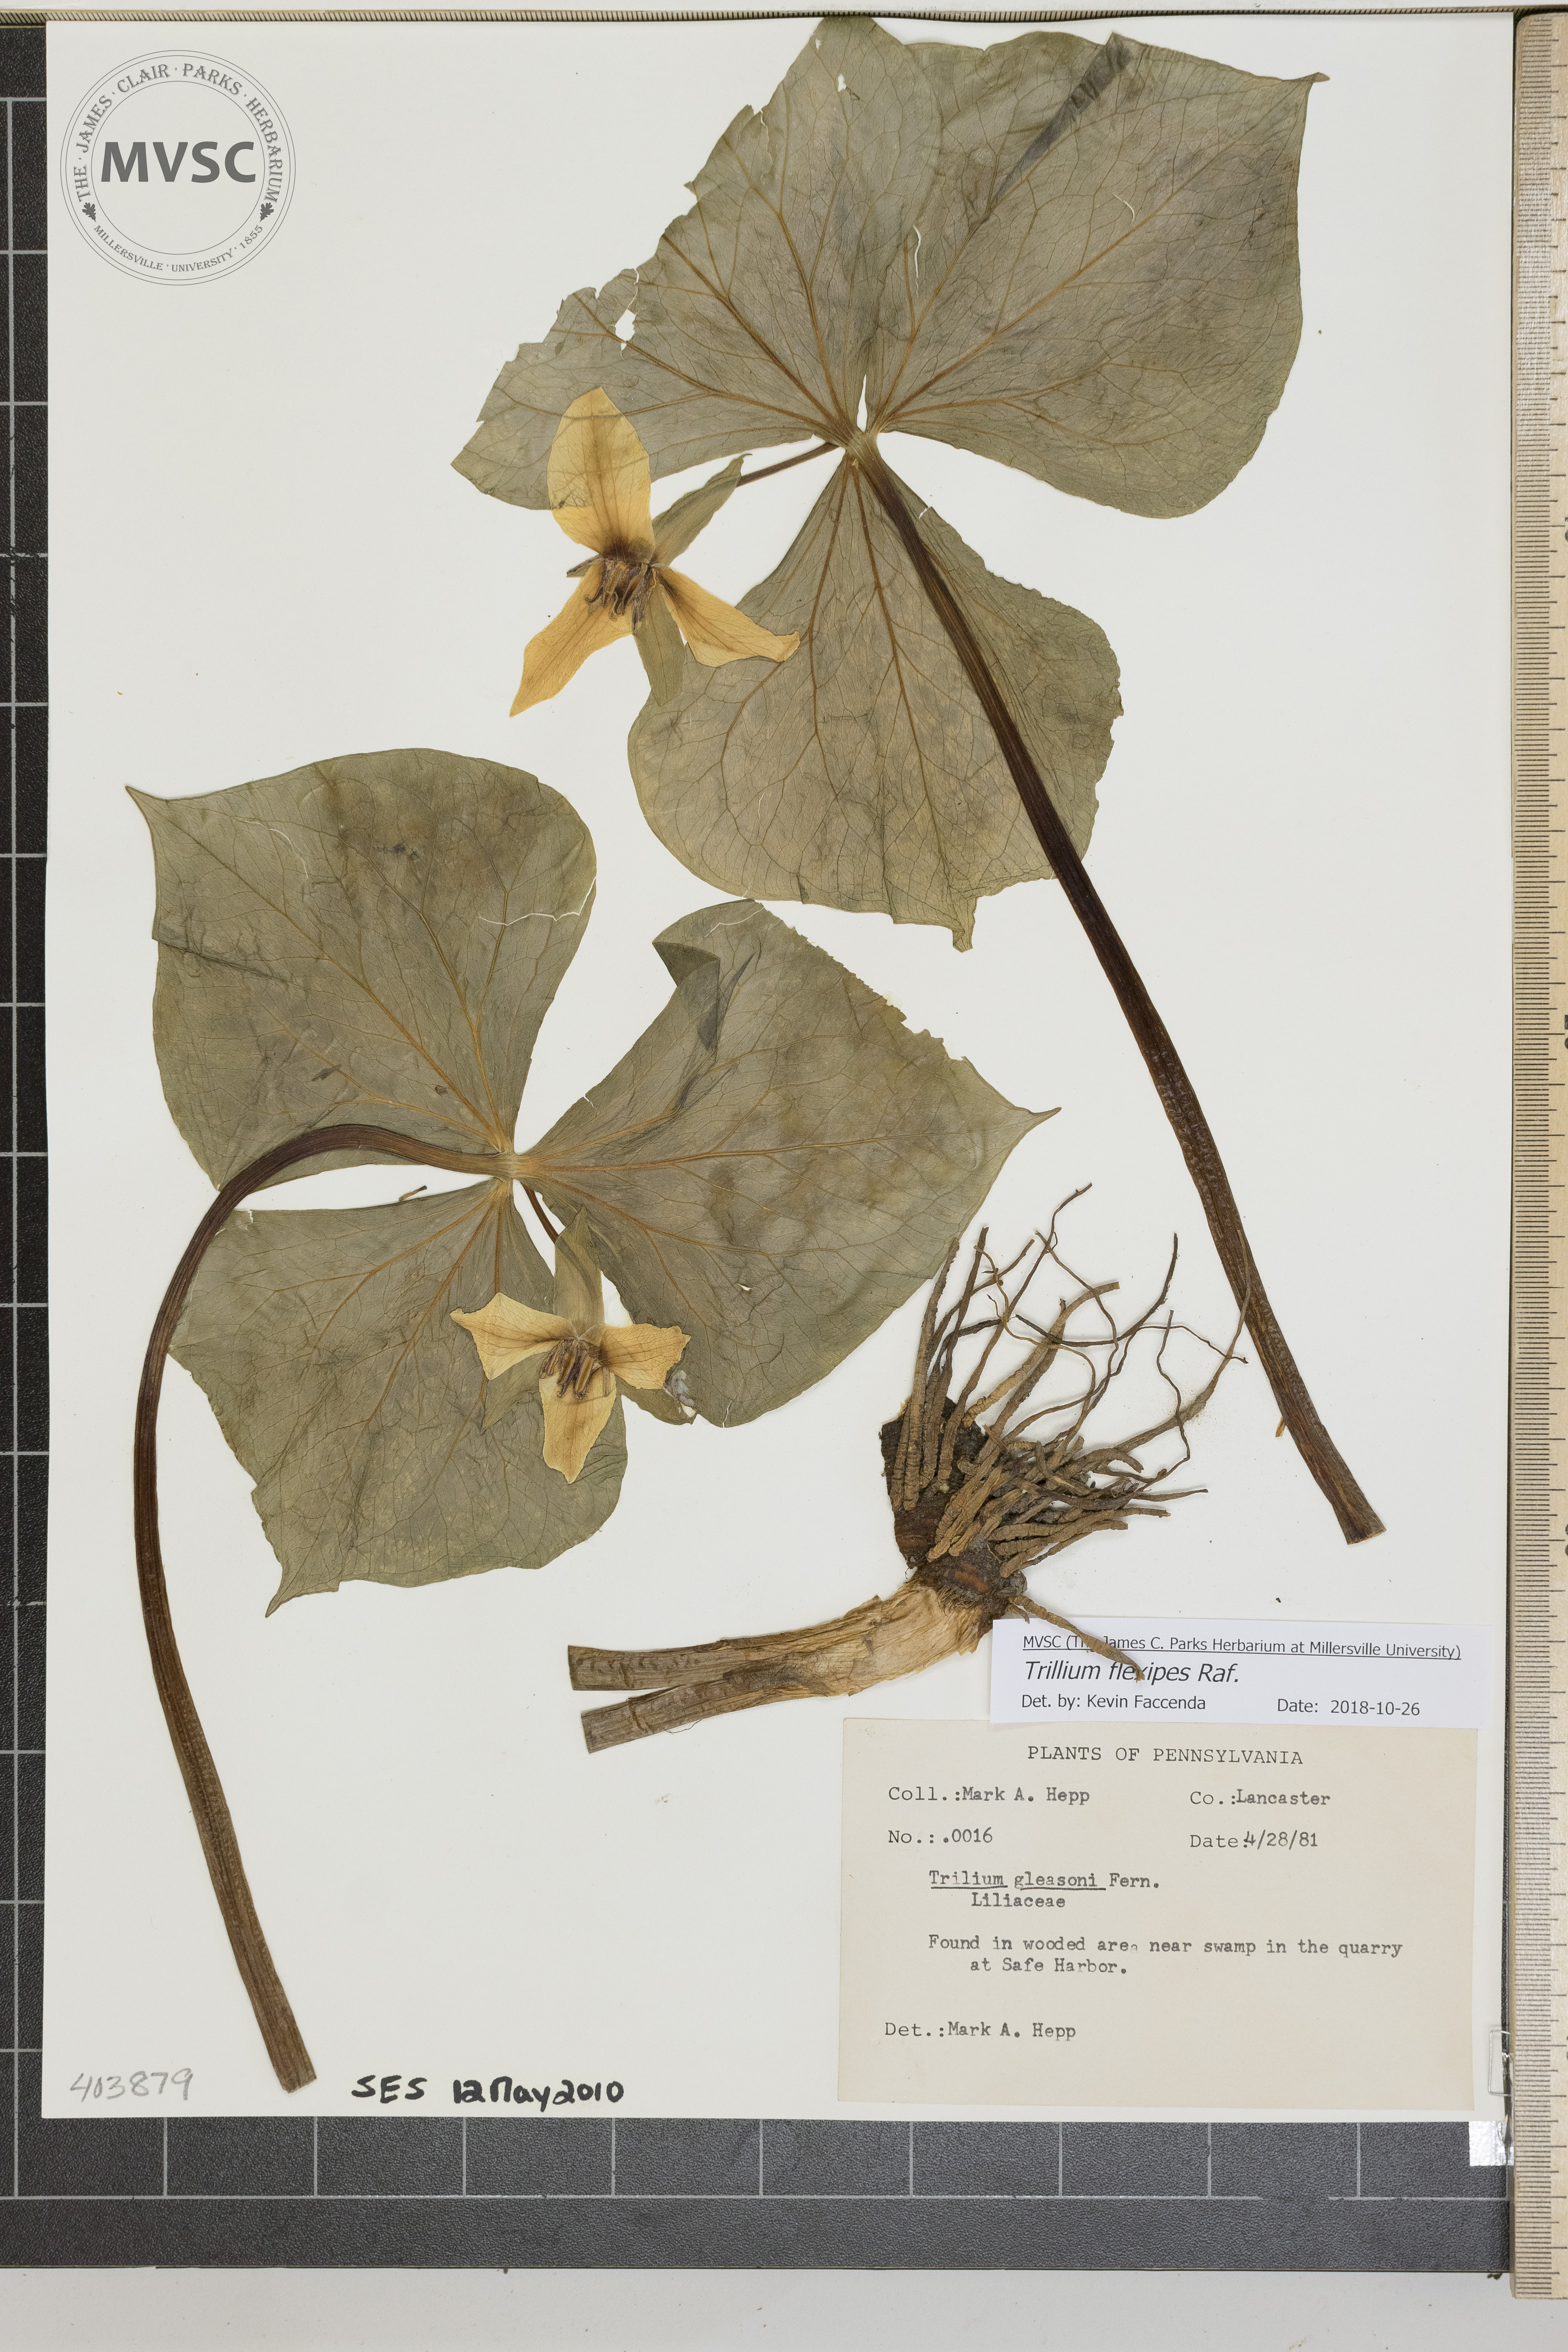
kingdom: Plantae
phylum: Tracheophyta
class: Liliopsida
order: Liliales
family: Melanthiaceae
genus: Trillium
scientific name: Trillium flexipes
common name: Drooping trillium
